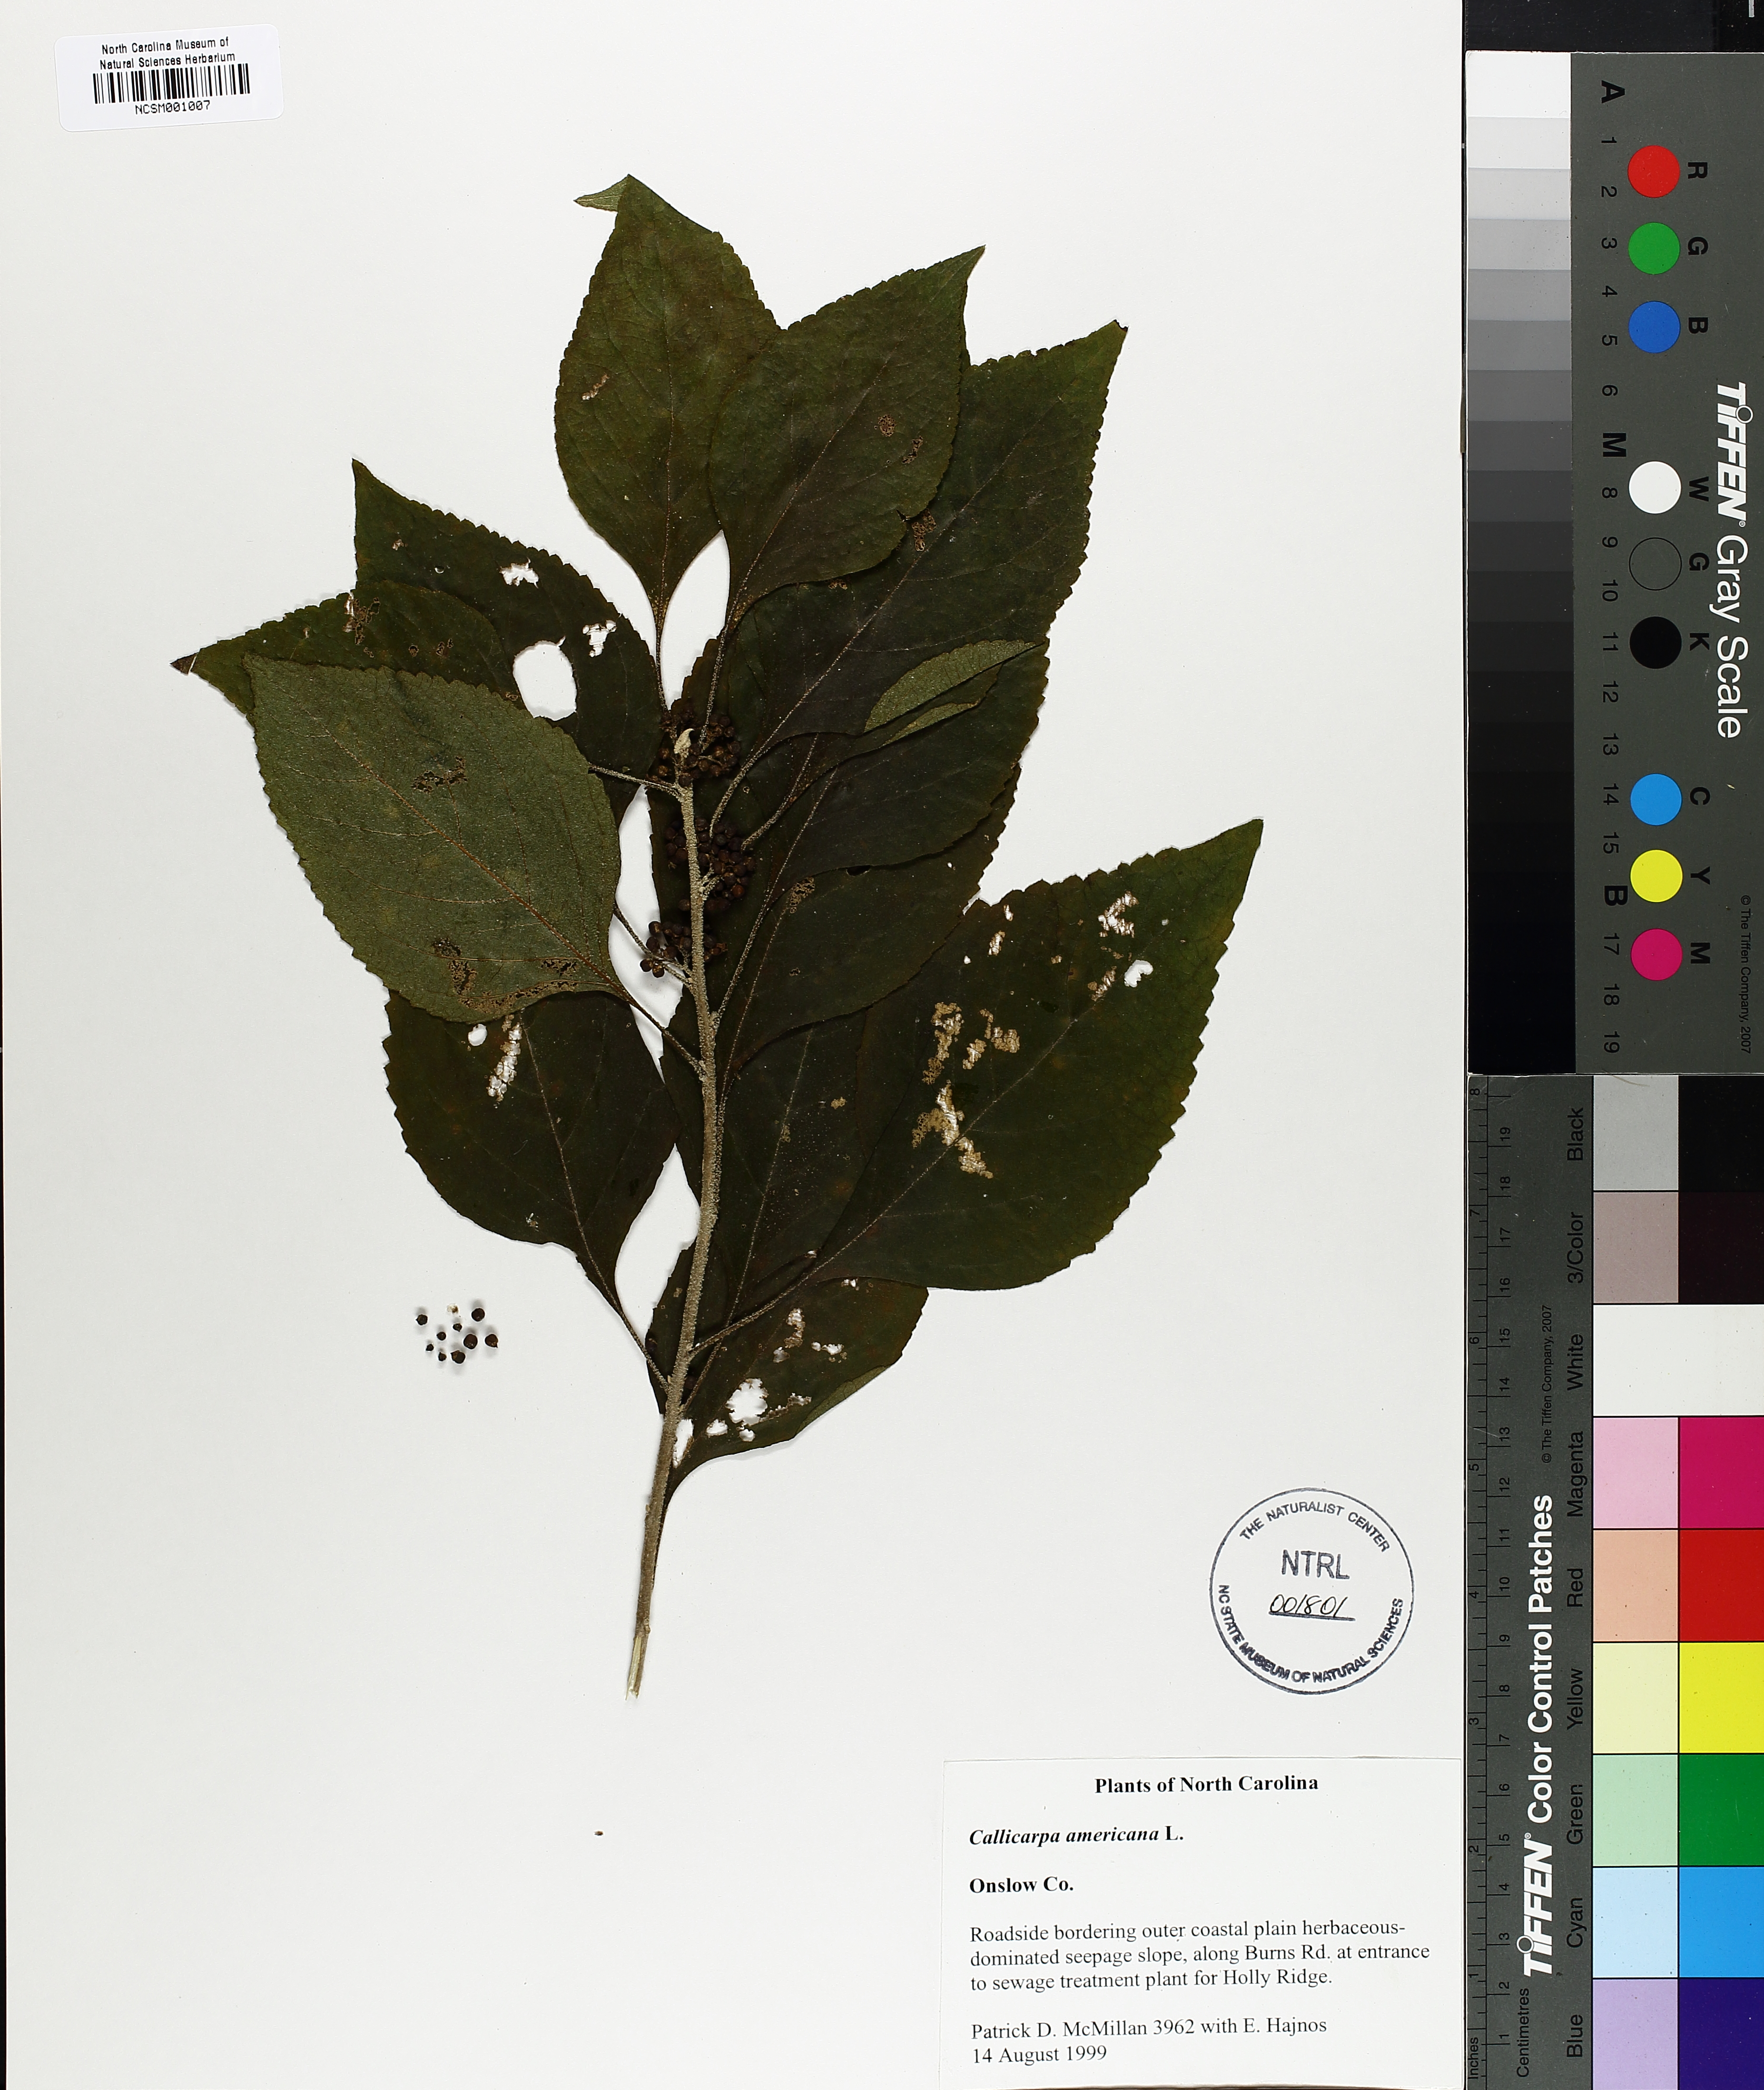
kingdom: Plantae
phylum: Tracheophyta
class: Magnoliopsida
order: Lamiales
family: Lamiaceae
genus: Callicarpa
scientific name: Callicarpa americana
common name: American beautyberry
